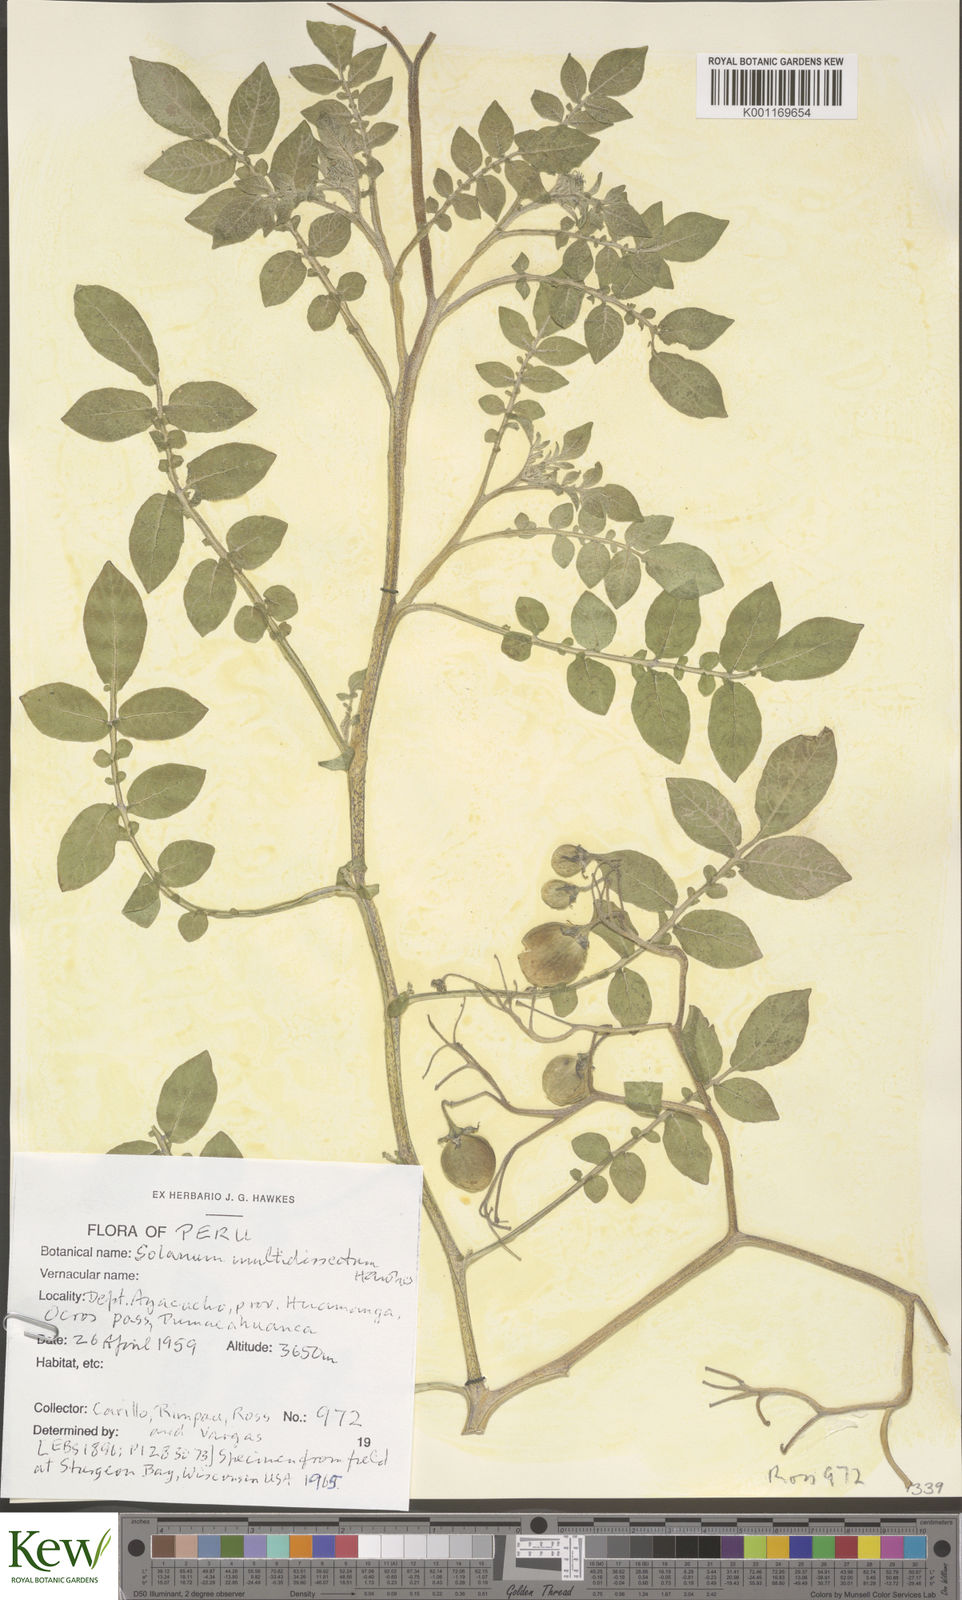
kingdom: Plantae
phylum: Tracheophyta
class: Magnoliopsida
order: Solanales
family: Solanaceae
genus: Solanum
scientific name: Solanum candolleanum
